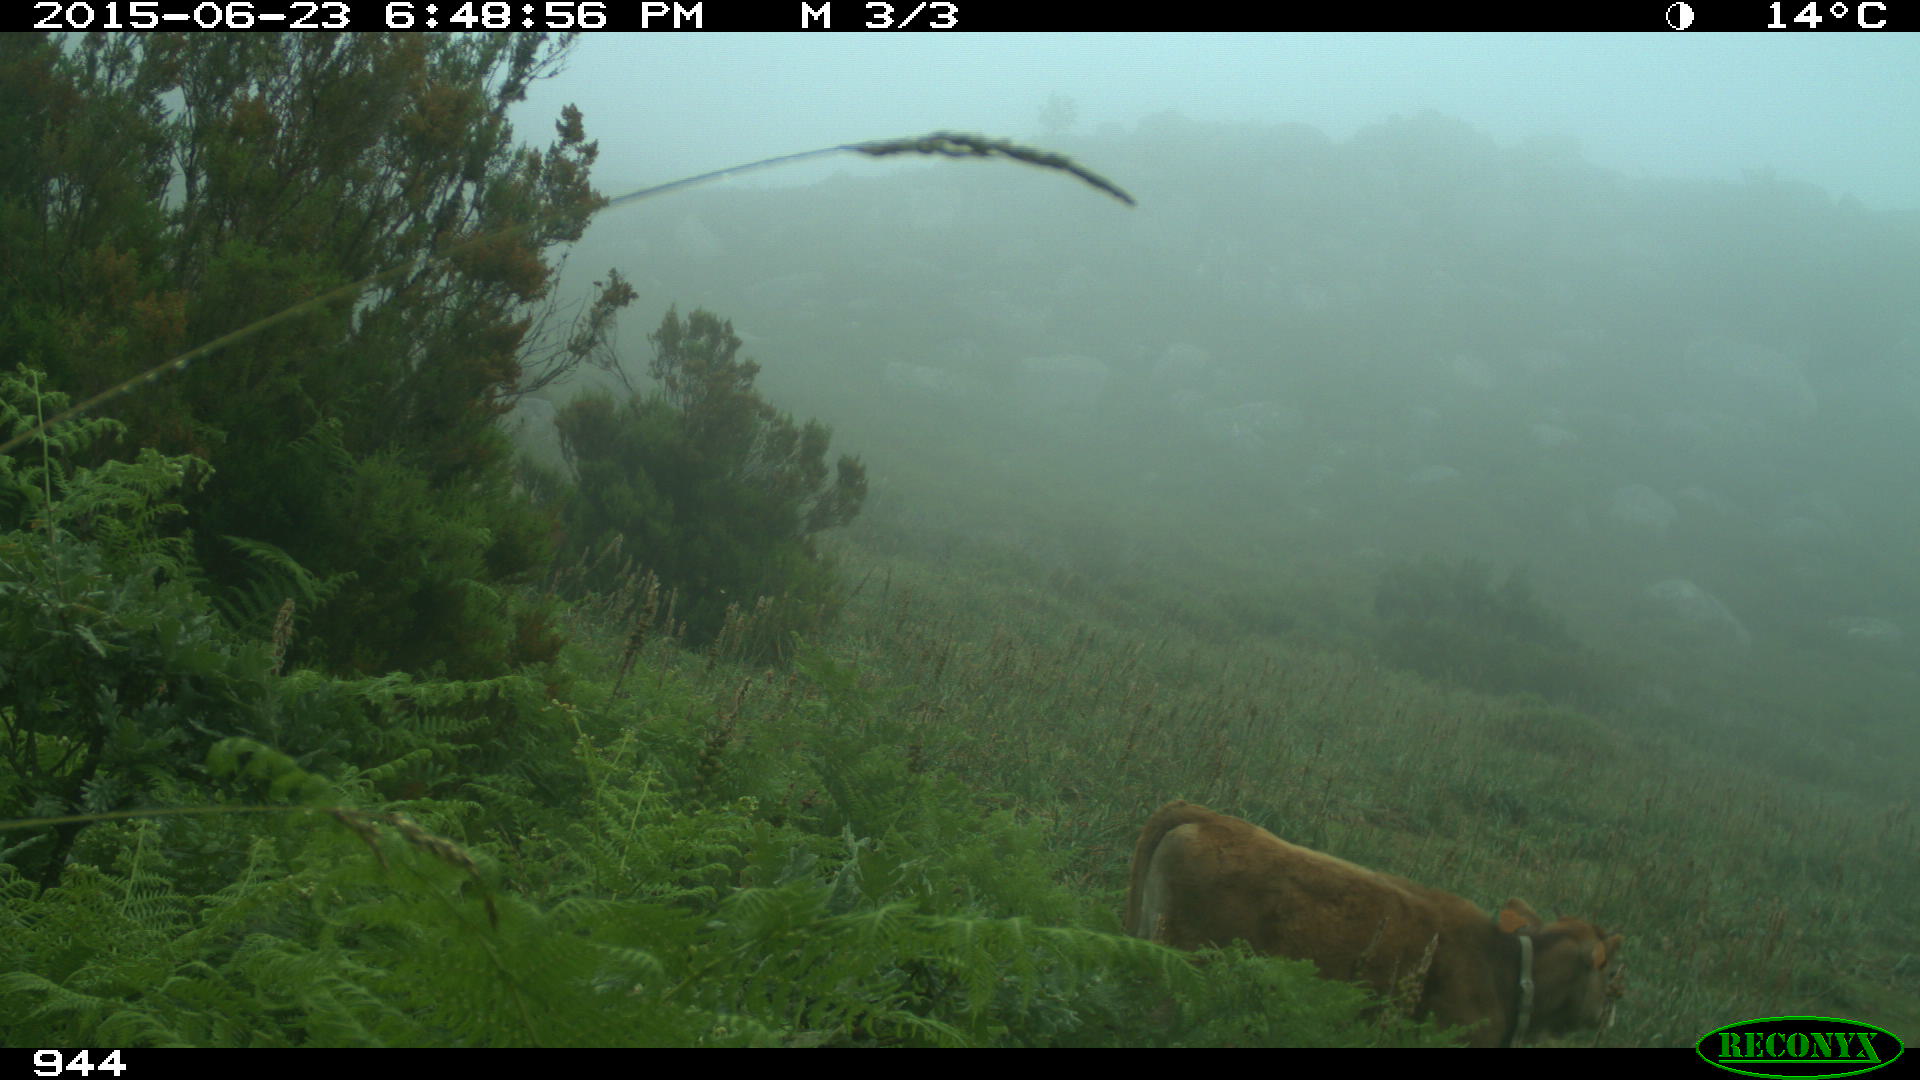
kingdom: Animalia
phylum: Chordata
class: Mammalia
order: Artiodactyla
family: Bovidae
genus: Bos
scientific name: Bos taurus
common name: Domesticated cattle
